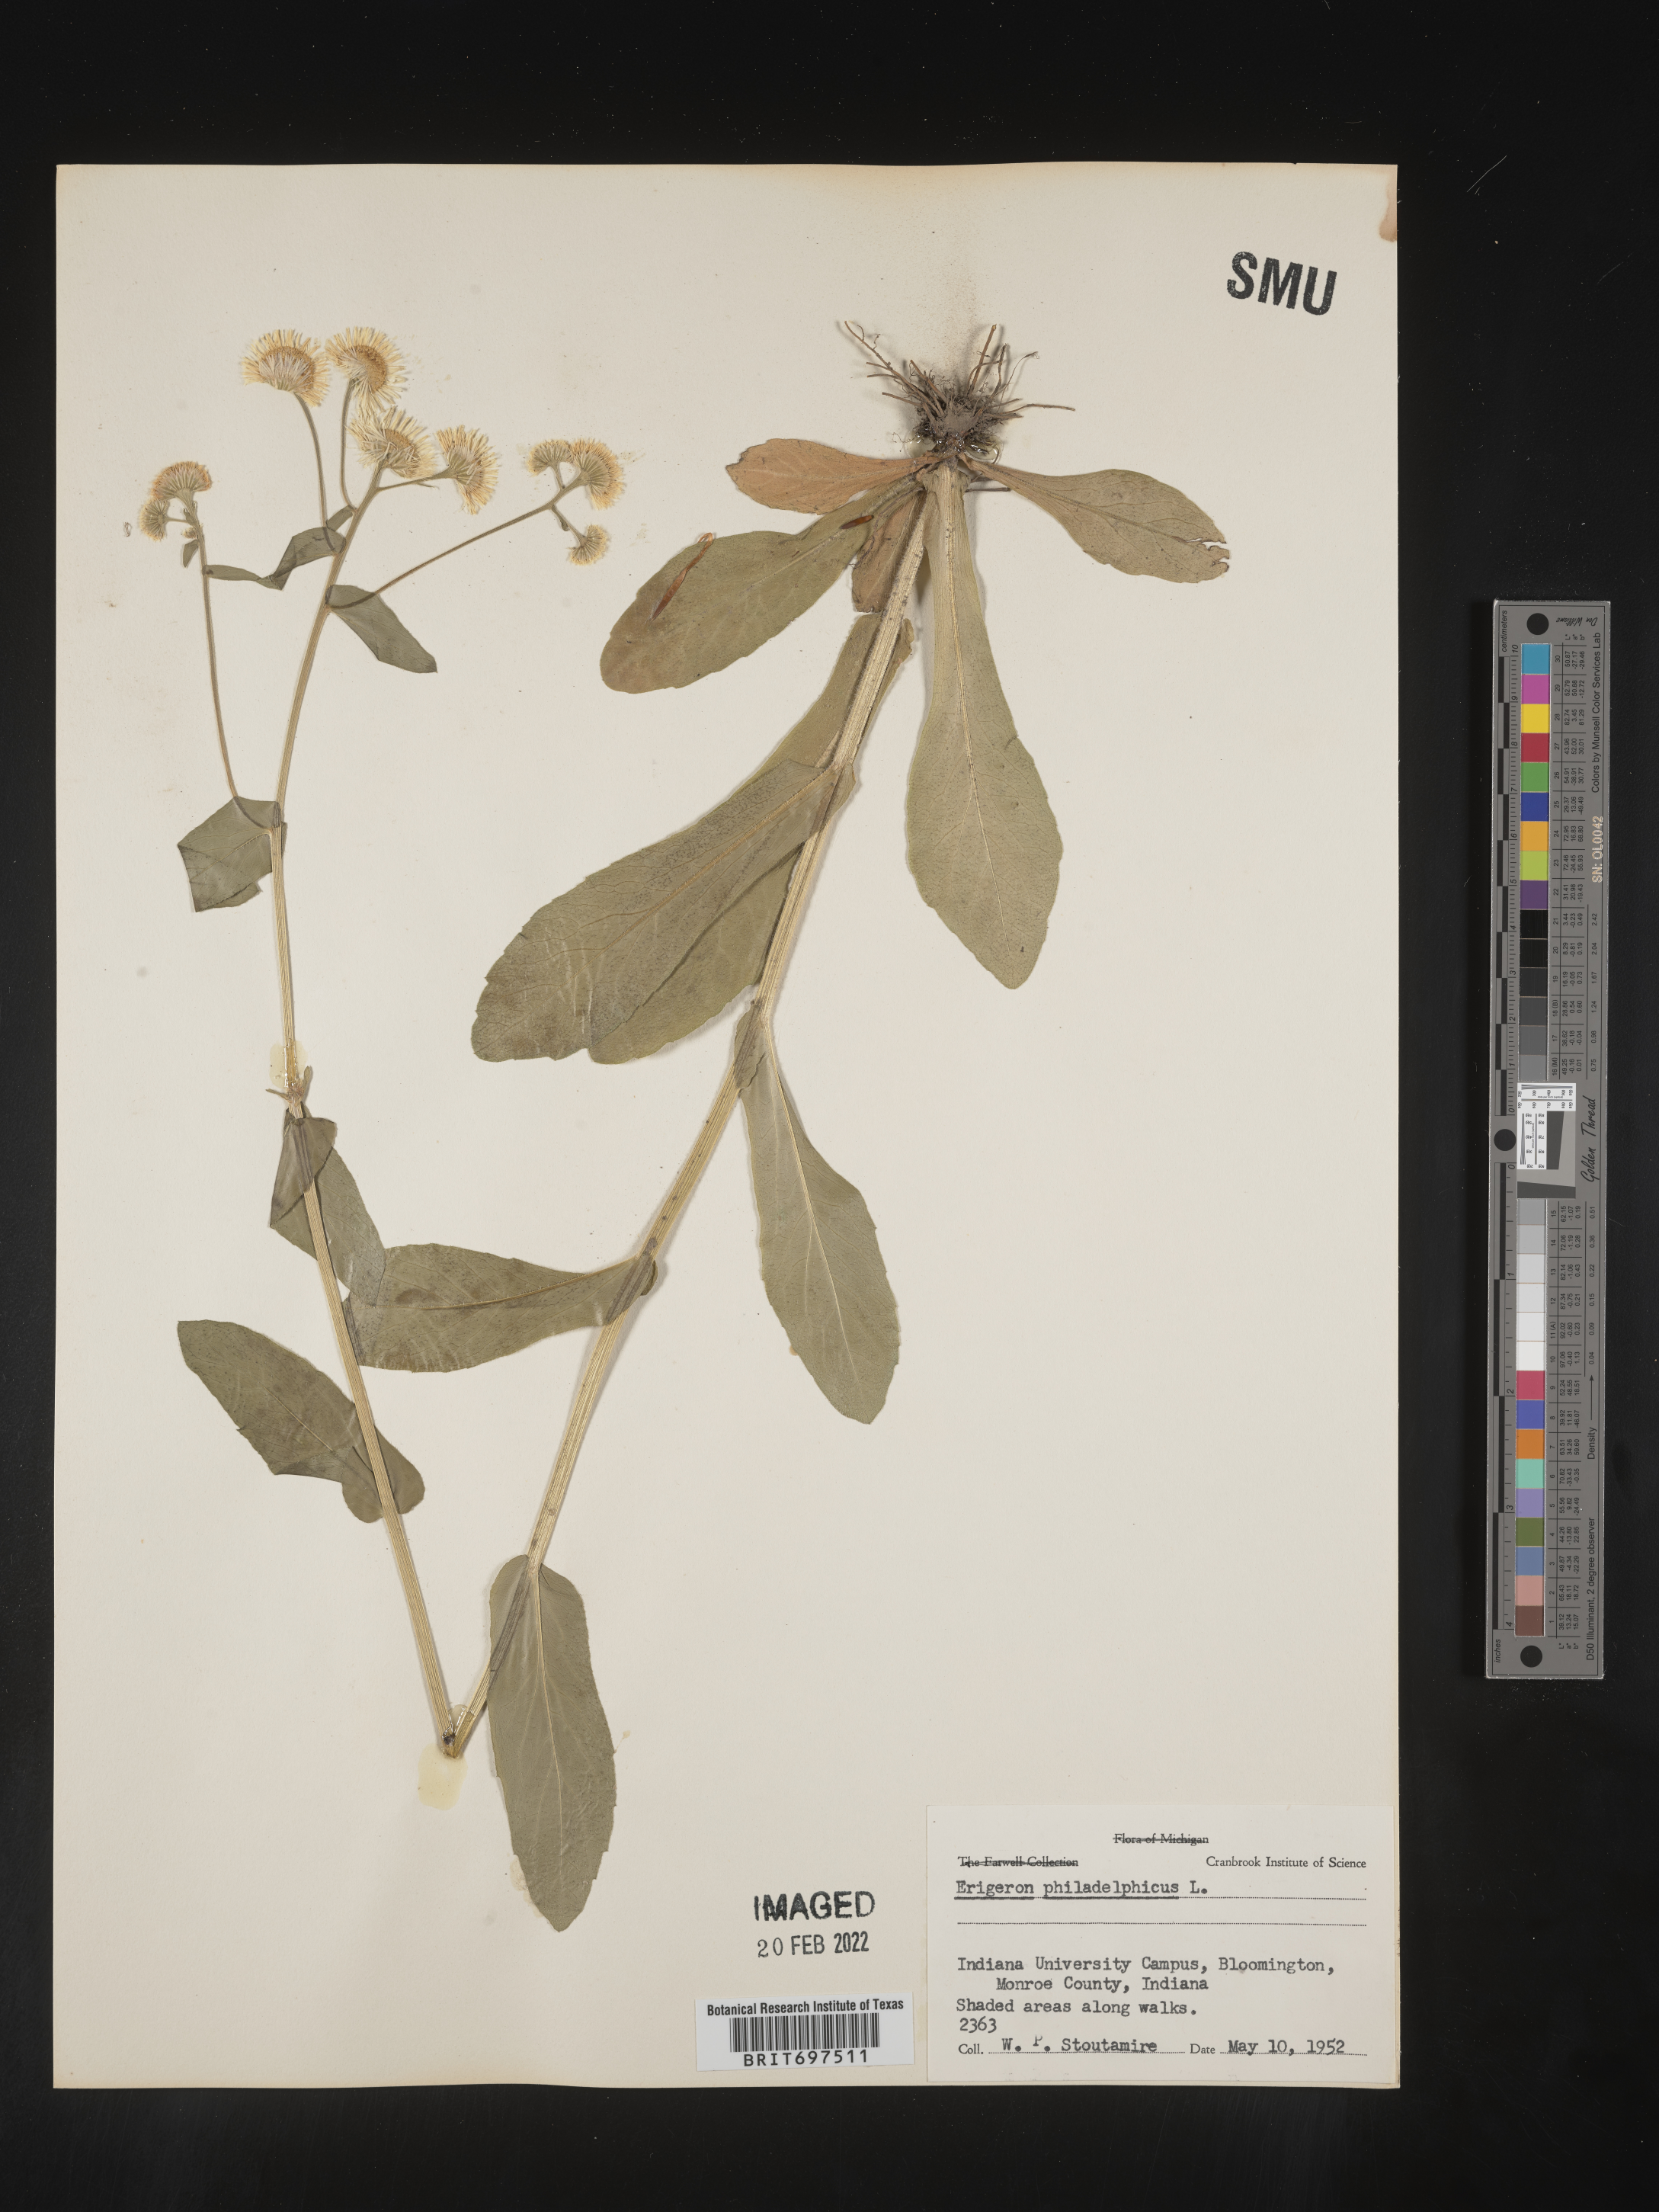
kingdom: Plantae
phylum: Tracheophyta
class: Magnoliopsida
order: Asterales
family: Asteraceae
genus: Erigeron
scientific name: Erigeron philadelphicus
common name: Robin's-plantain
